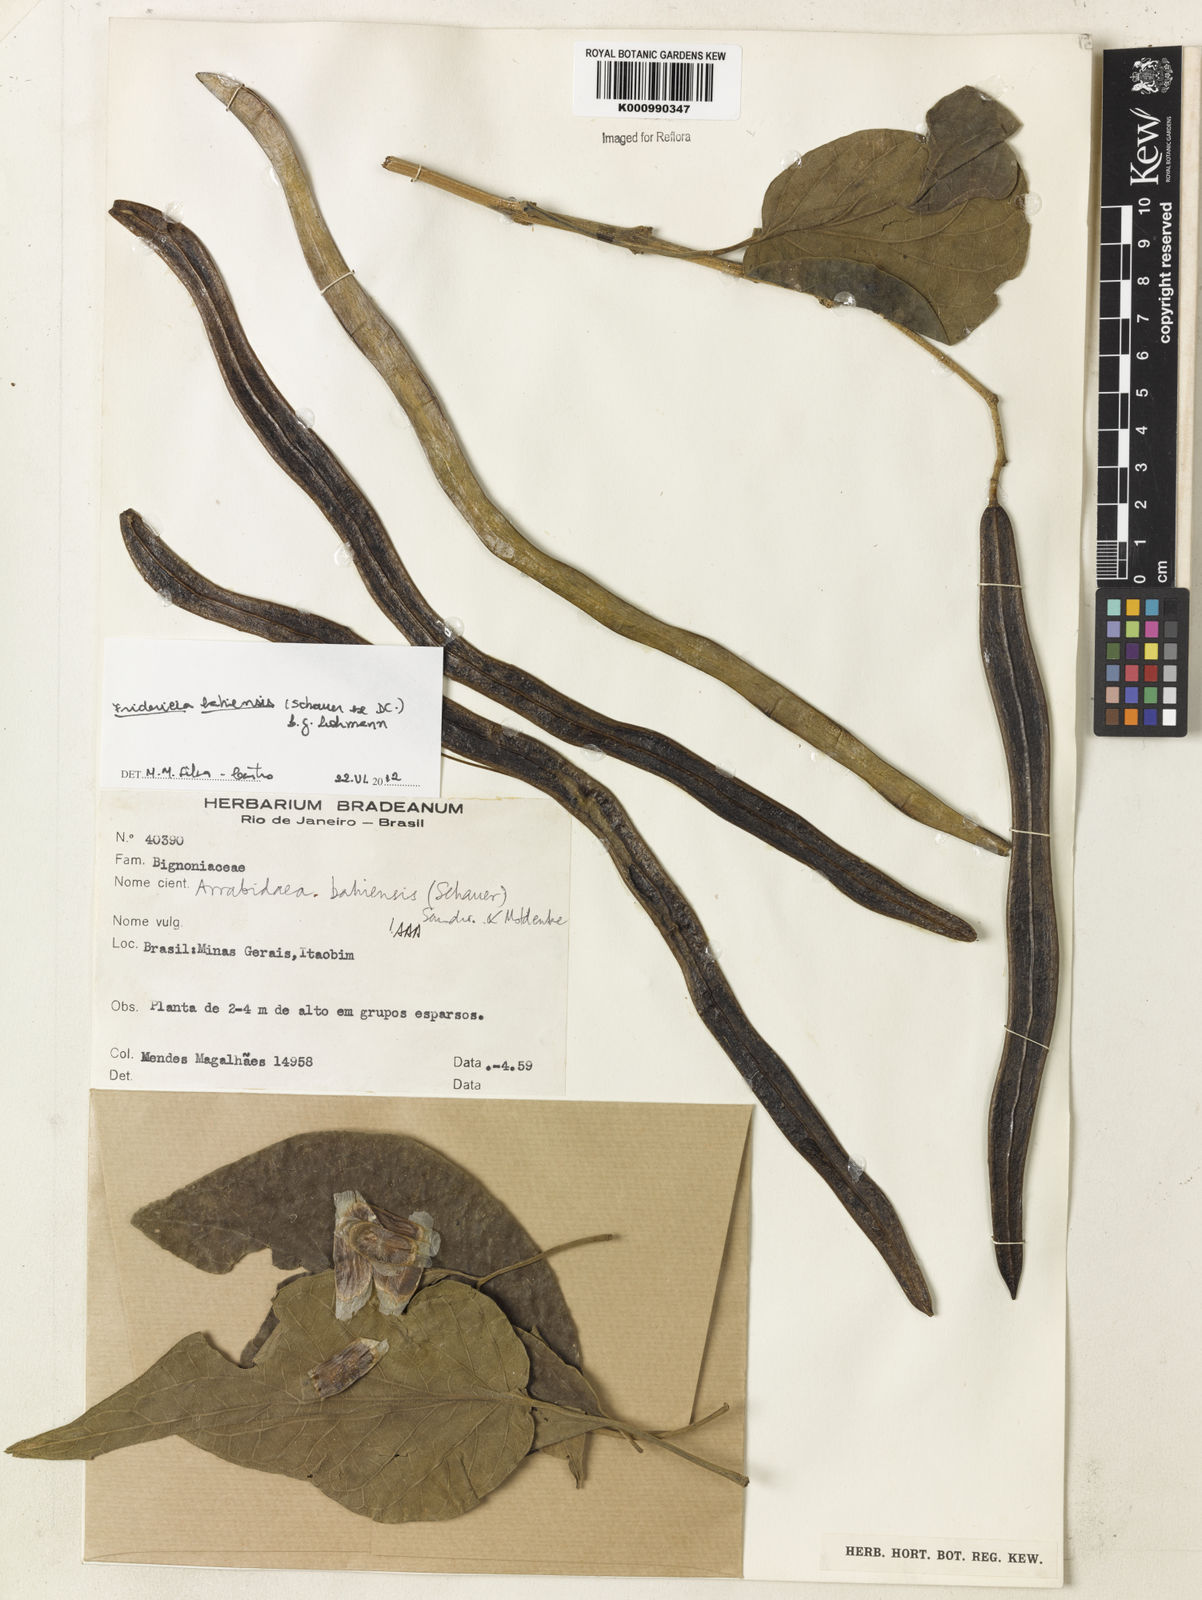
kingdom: Plantae
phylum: Tracheophyta
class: Magnoliopsida
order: Lamiales
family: Bignoniaceae
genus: Fridericia
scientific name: Fridericia bahiensis
